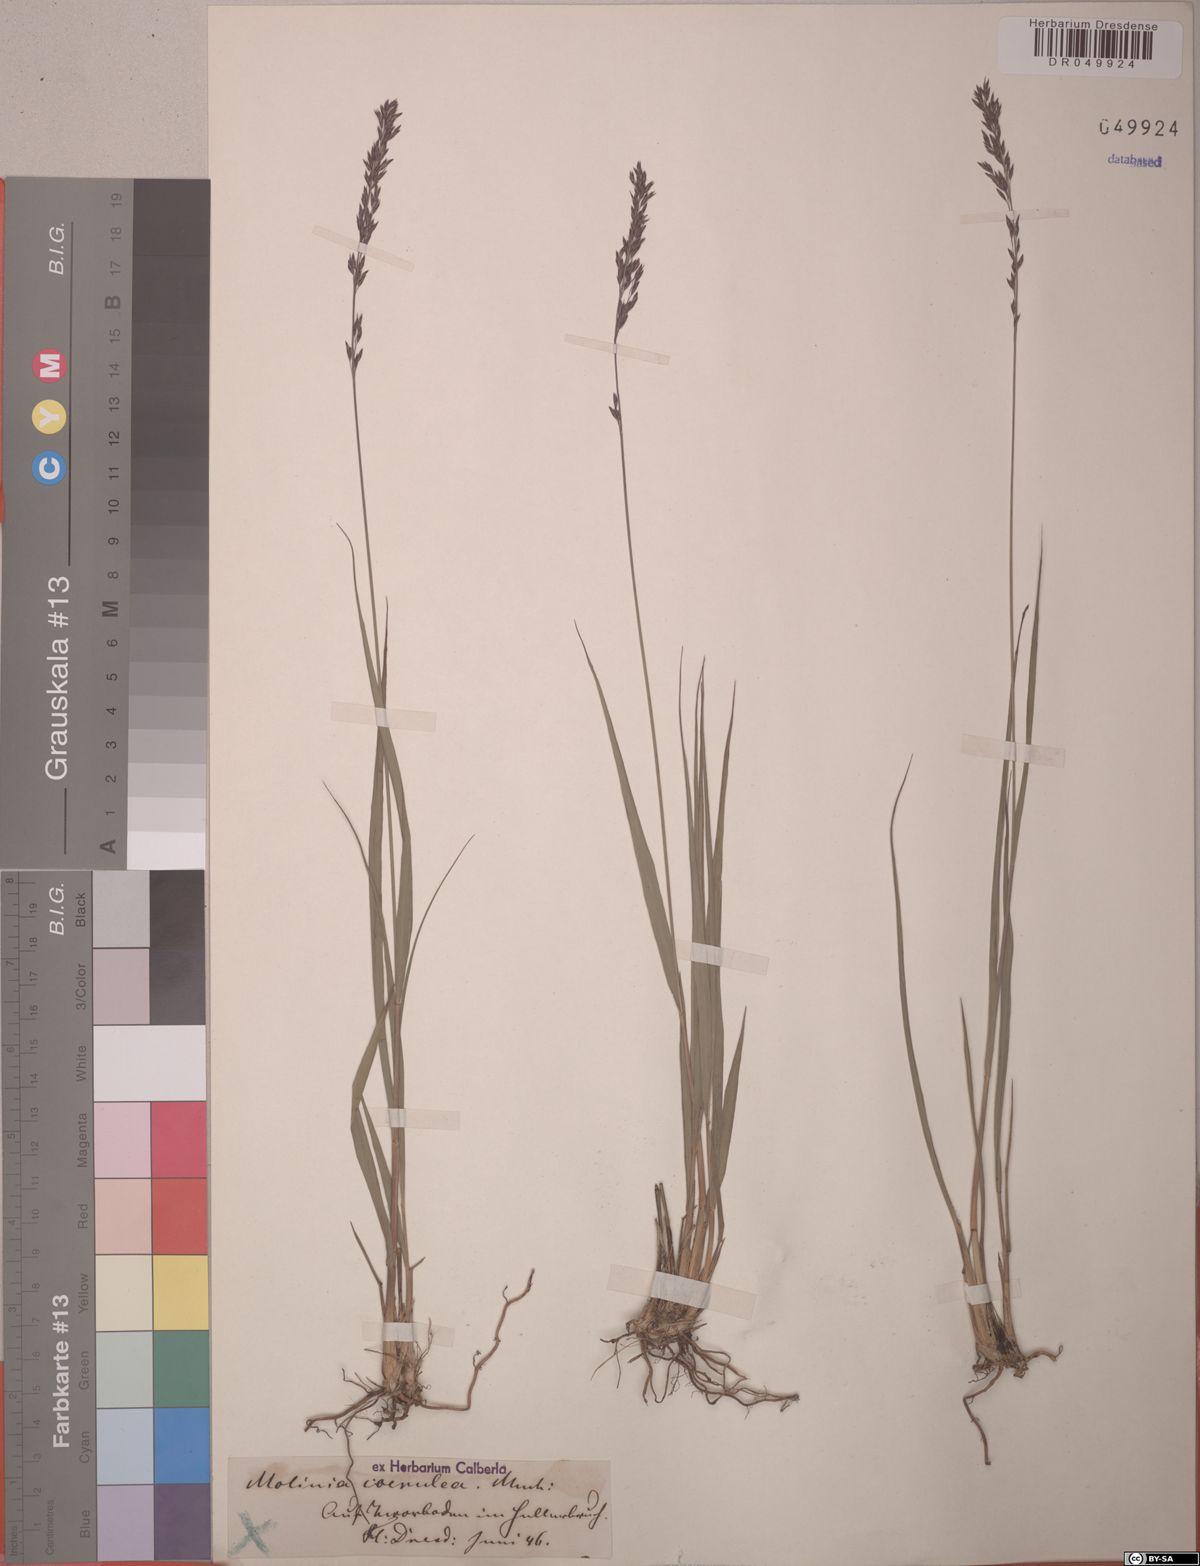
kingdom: Plantae
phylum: Tracheophyta
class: Liliopsida
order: Poales
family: Poaceae
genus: Molinia
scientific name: Molinia caerulea
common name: Purple moor-grass
